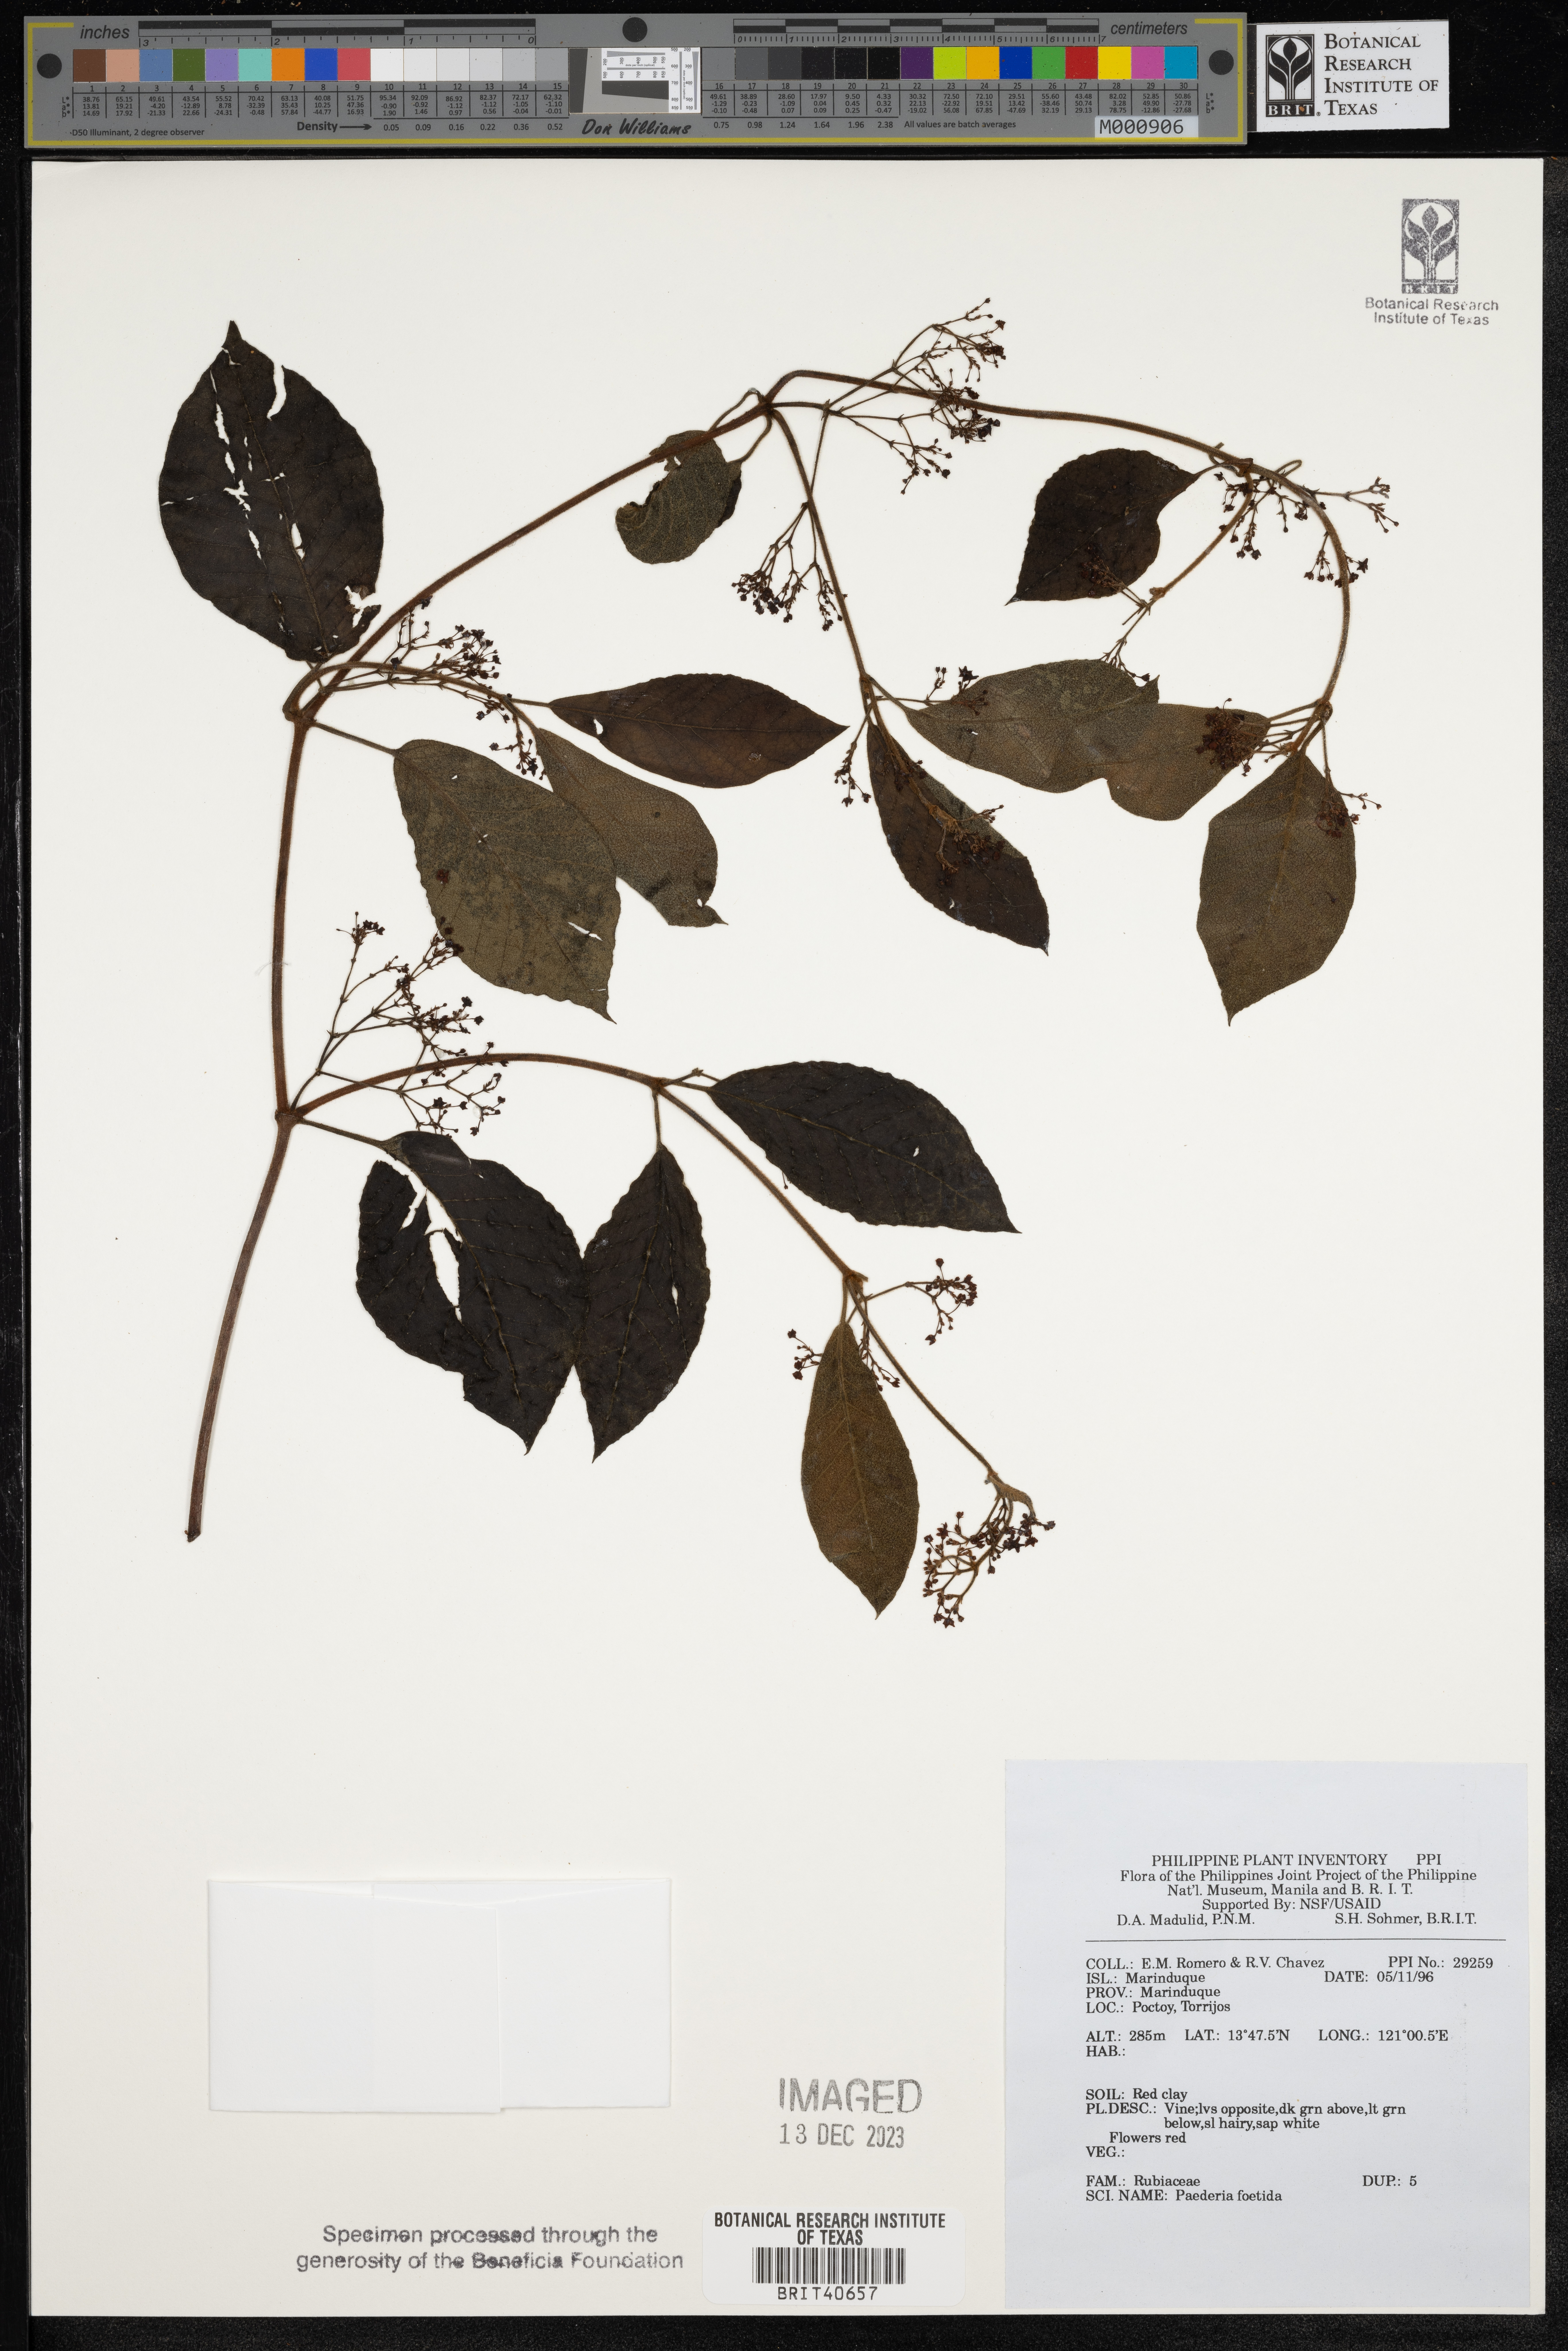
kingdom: Plantae
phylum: Tracheophyta
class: Magnoliopsida
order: Gentianales
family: Rubiaceae
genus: Paederia
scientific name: Paederia foetida
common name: Stinkvine
